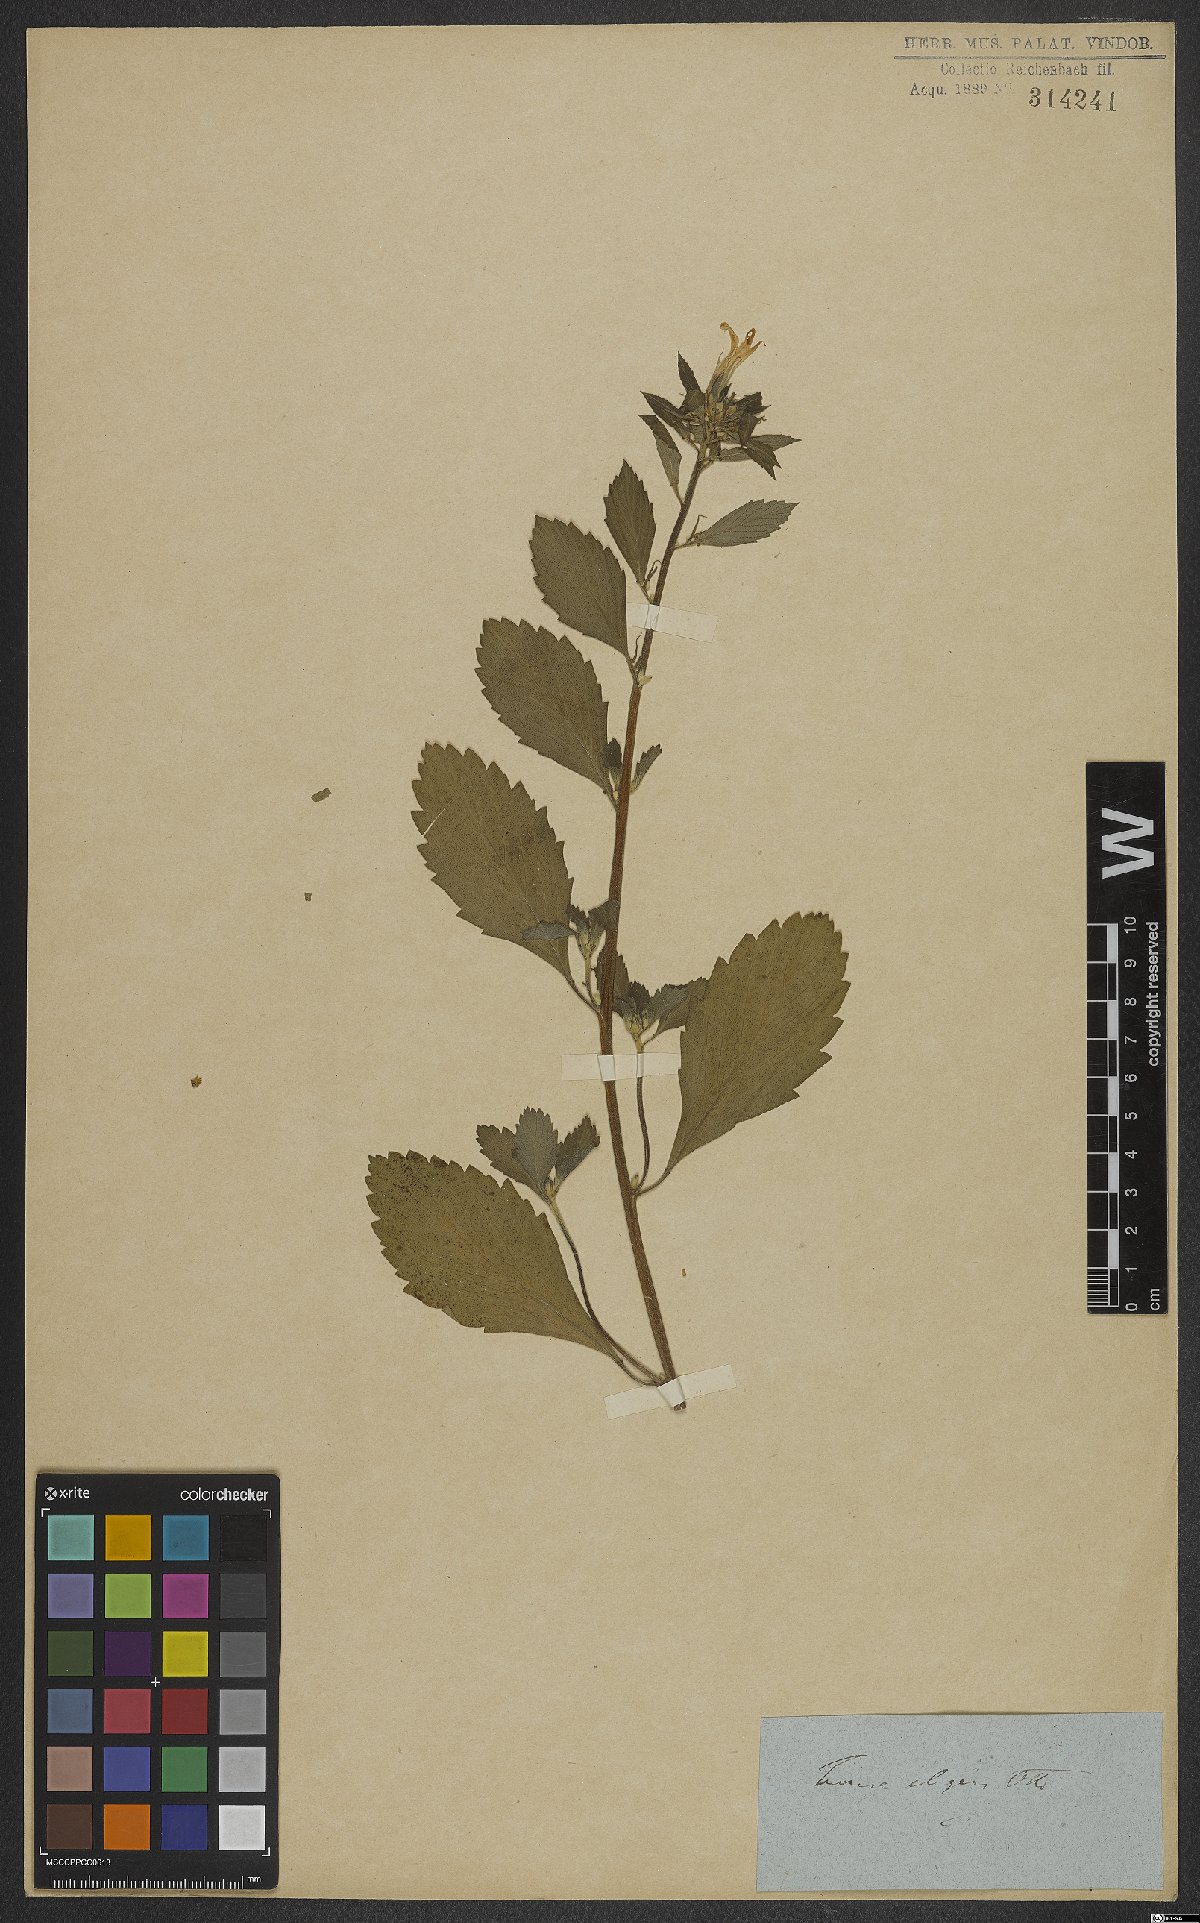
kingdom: Plantae
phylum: Tracheophyta
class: Magnoliopsida
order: Malpighiales
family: Turneraceae
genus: Turnera
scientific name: Turnera subulata
